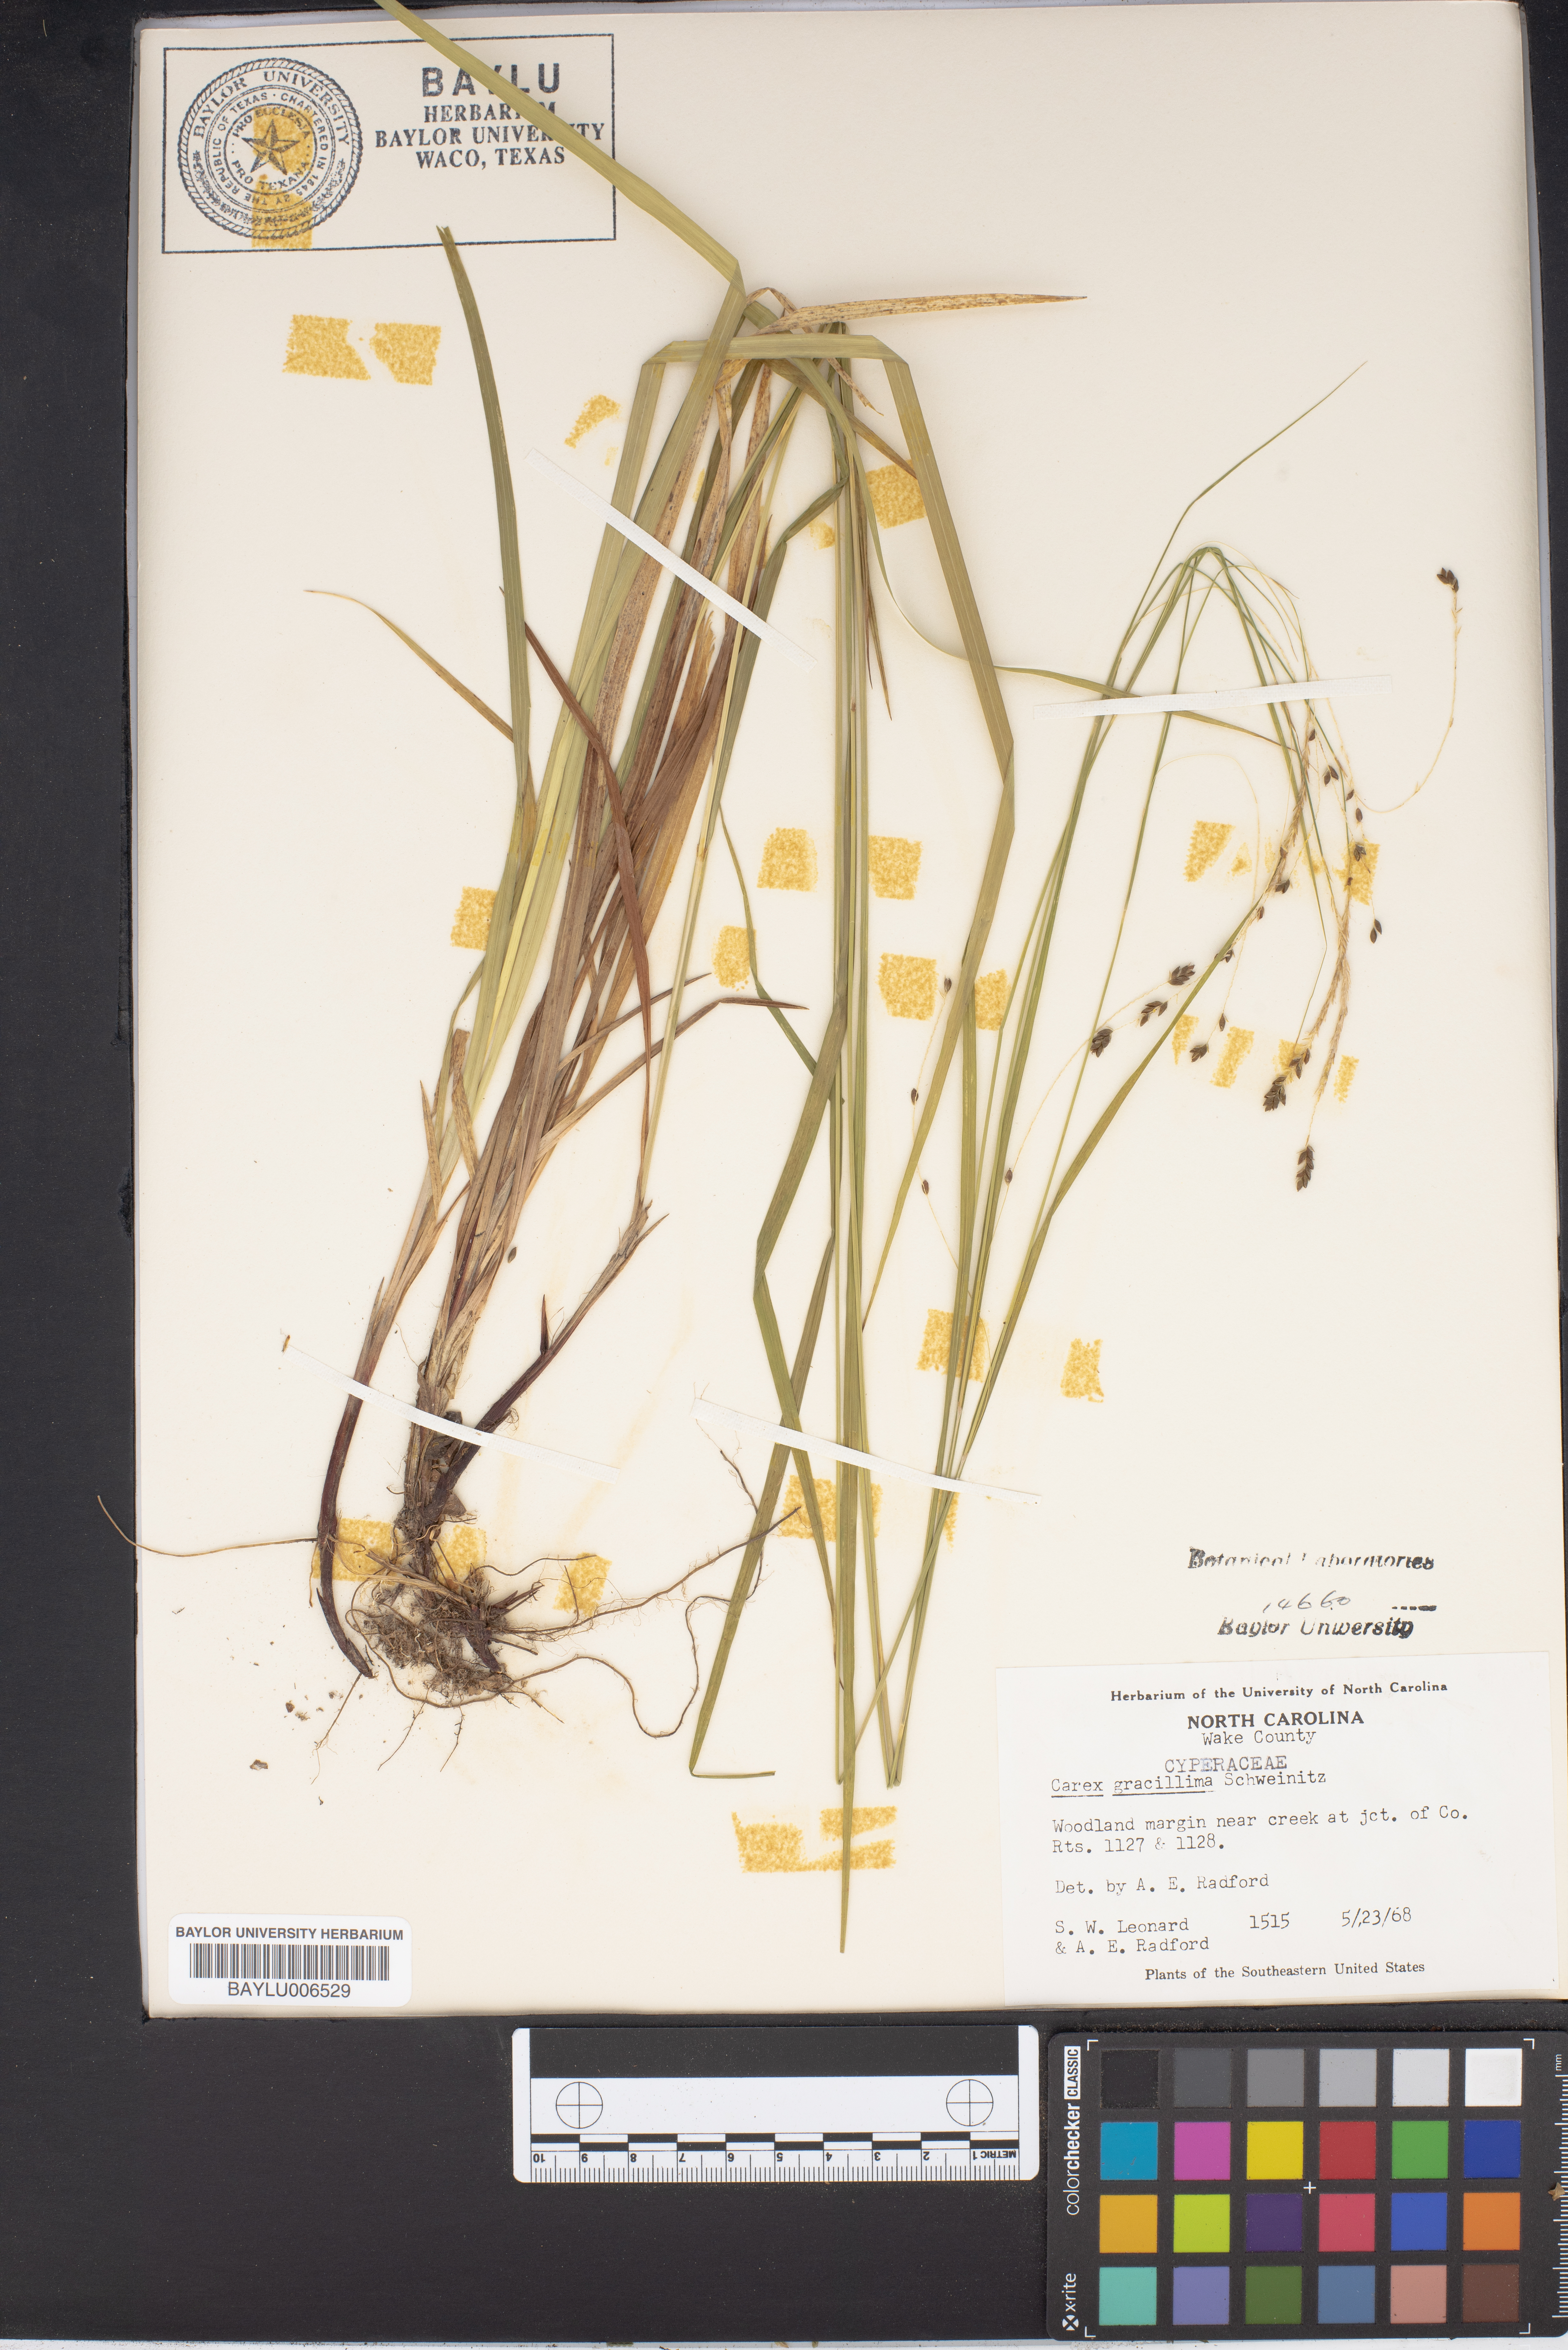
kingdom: Plantae
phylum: Tracheophyta
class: Liliopsida
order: Poales
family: Cyperaceae
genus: Carex
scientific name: Carex gracillima
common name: Graceful sedge
